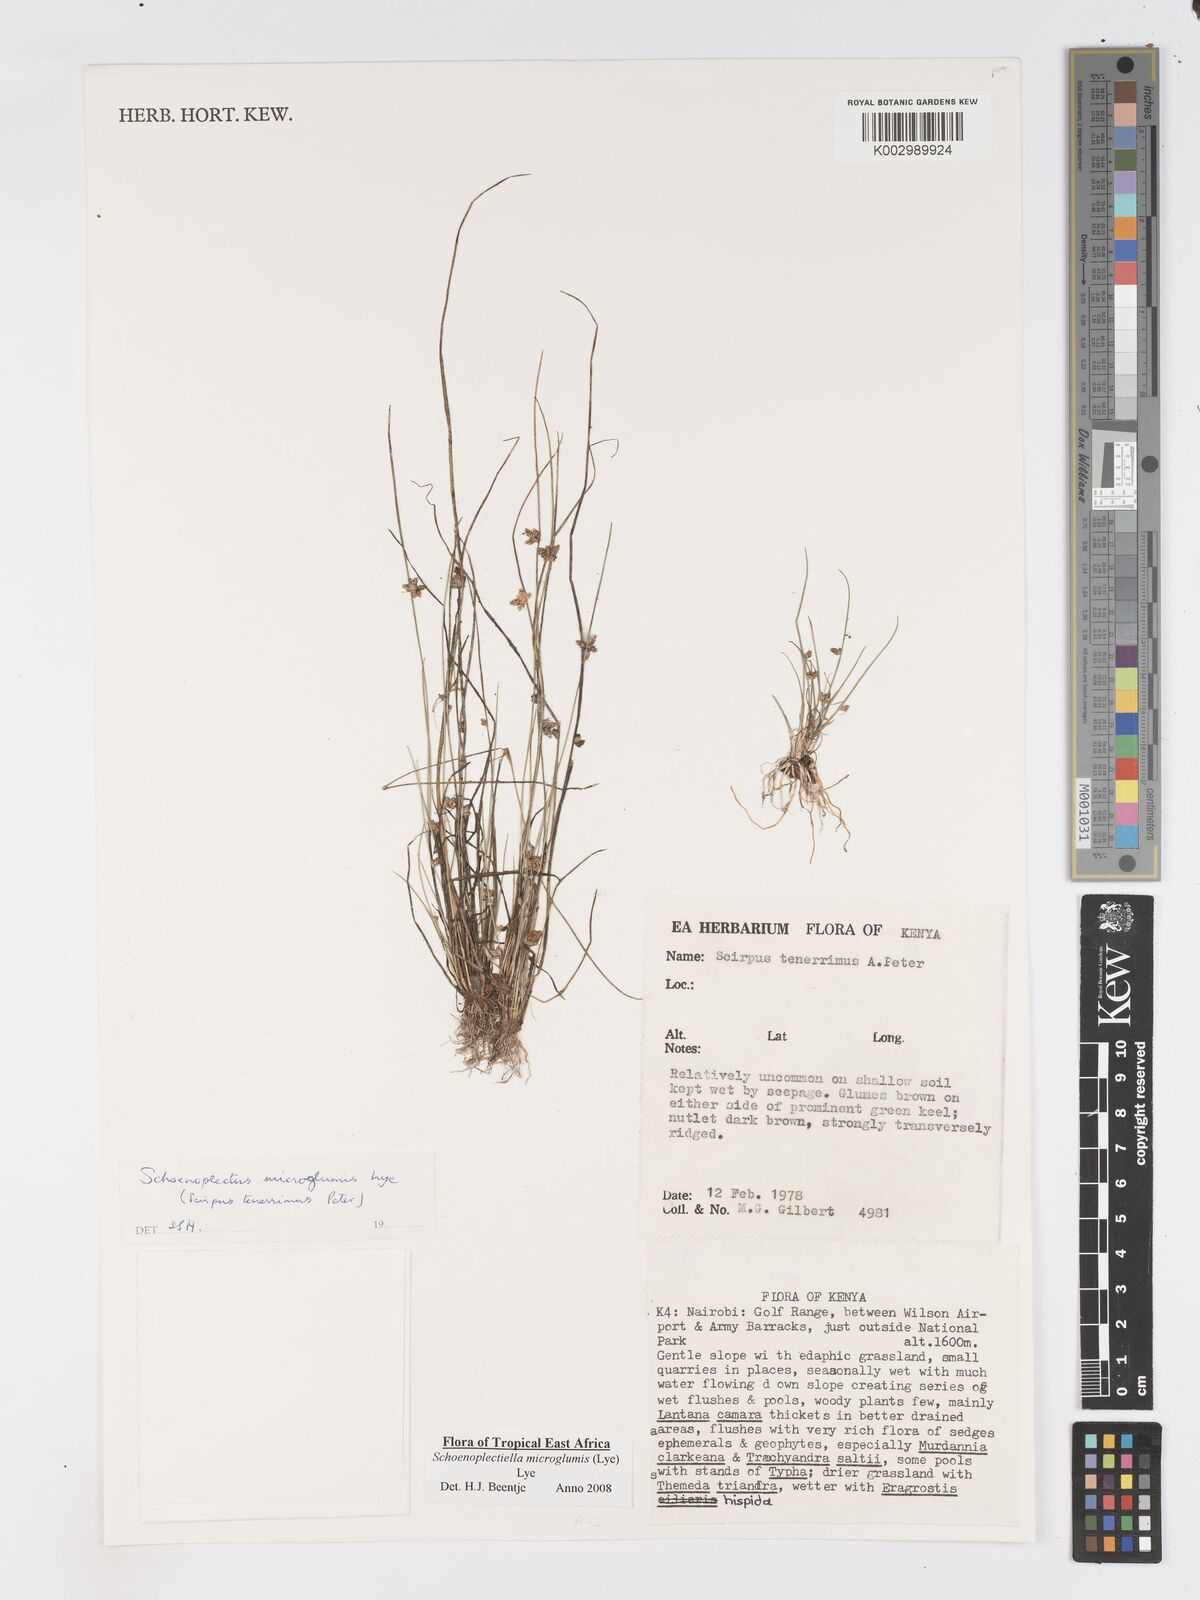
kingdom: Plantae
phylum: Tracheophyta
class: Liliopsida
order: Poales
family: Cyperaceae
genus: Schoenoplectiella
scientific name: Schoenoplectiella microglumis
